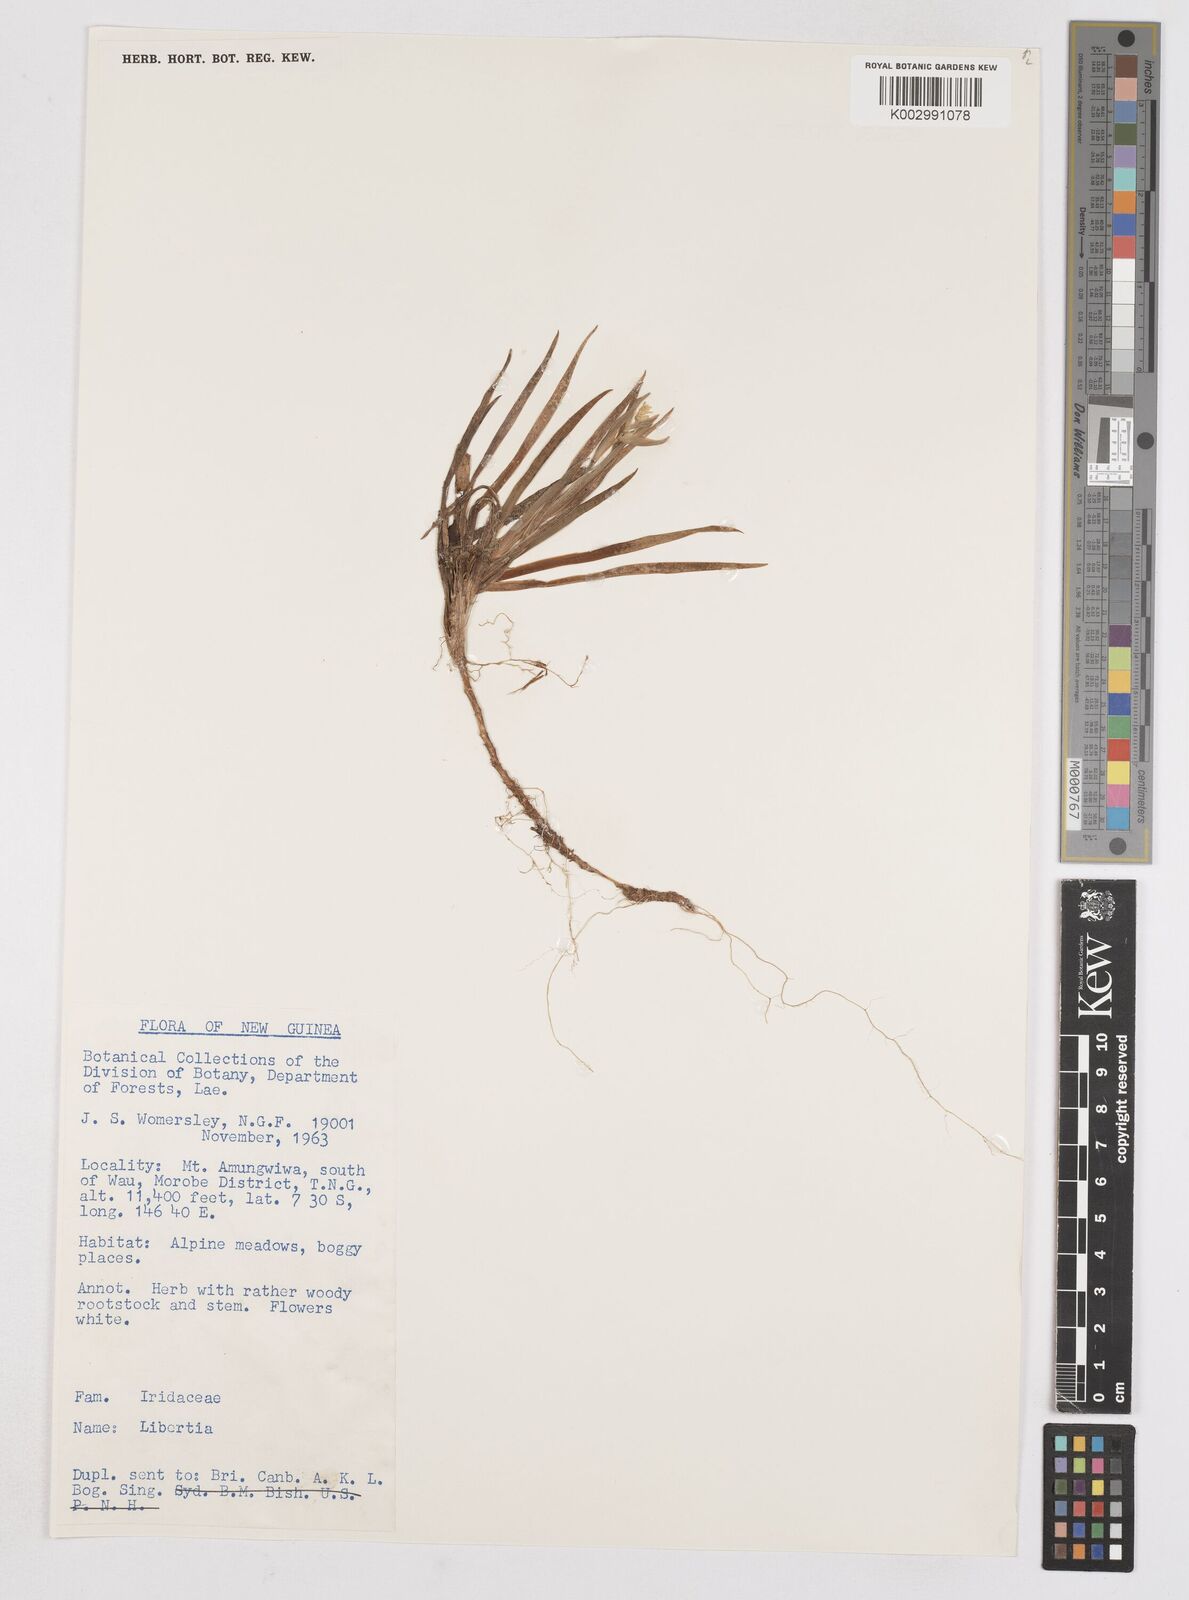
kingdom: Plantae
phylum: Tracheophyta
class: Liliopsida
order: Asparagales
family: Iridaceae
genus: Libertia
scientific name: Libertia
